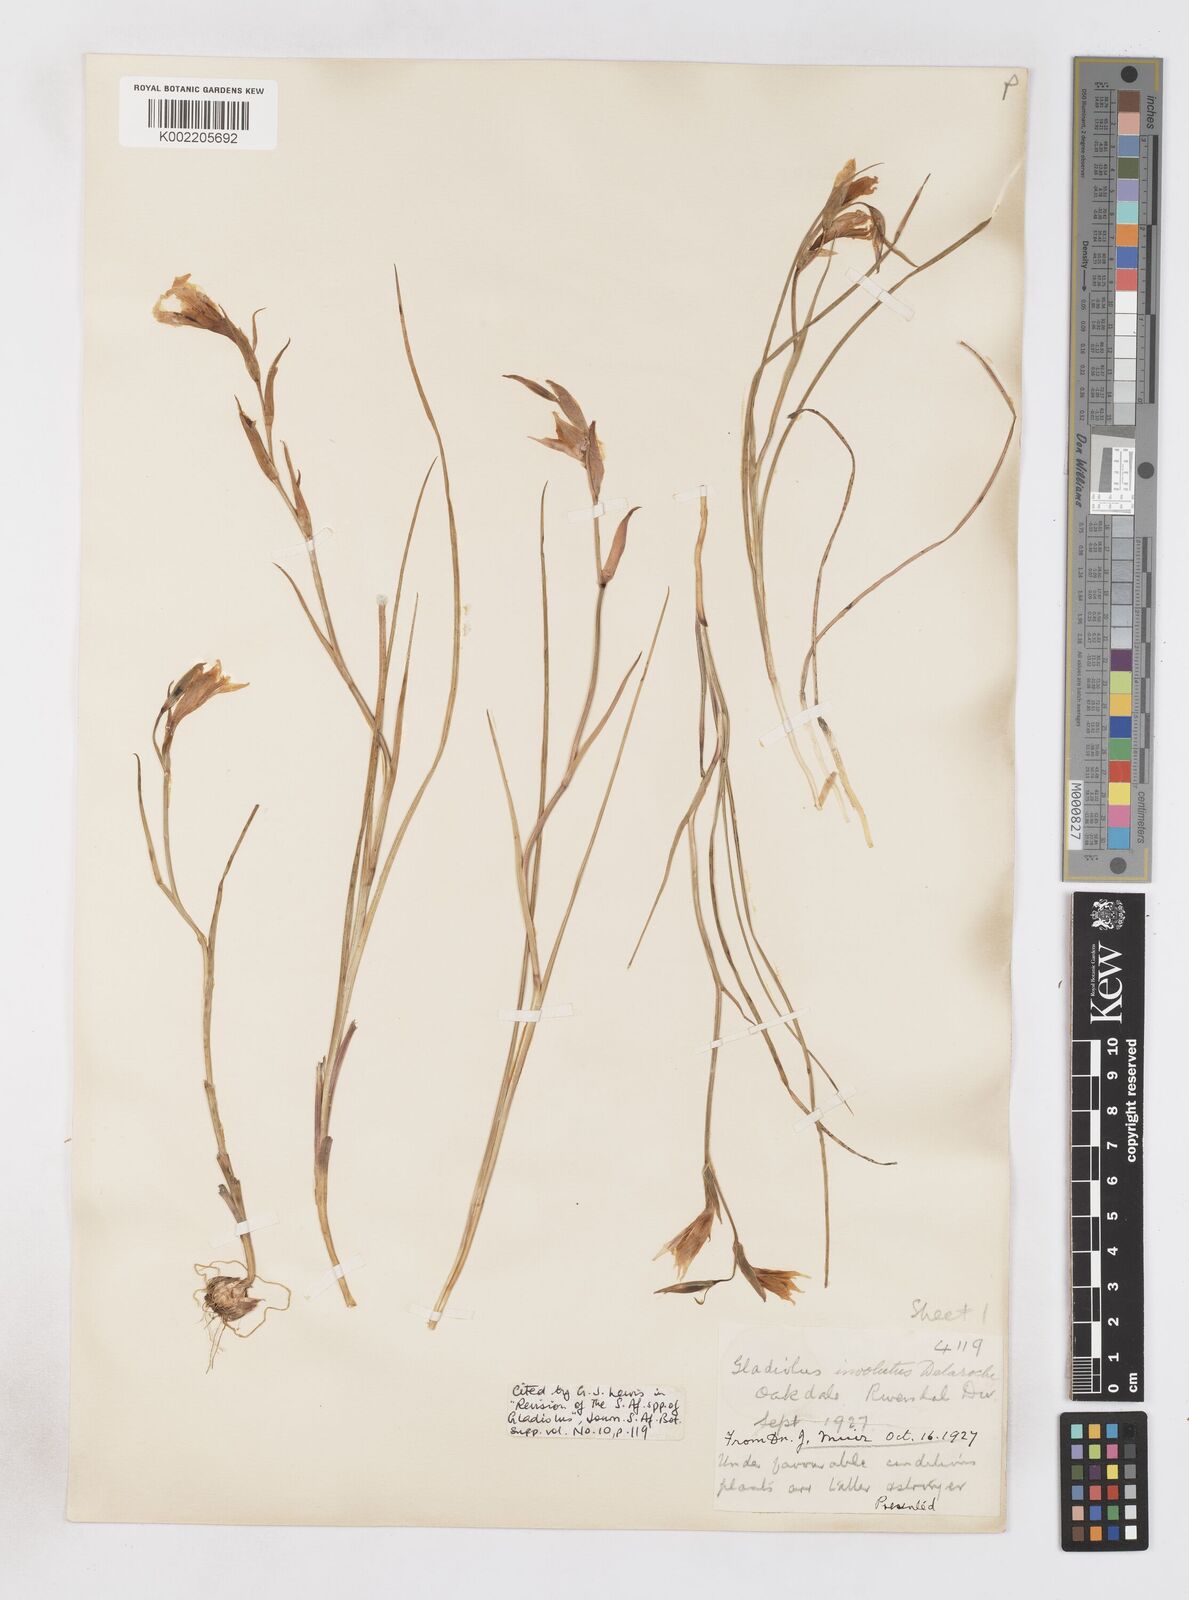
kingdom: Plantae
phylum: Tracheophyta
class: Liliopsida
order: Asparagales
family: Iridaceae
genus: Gladiolus
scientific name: Gladiolus involutus
